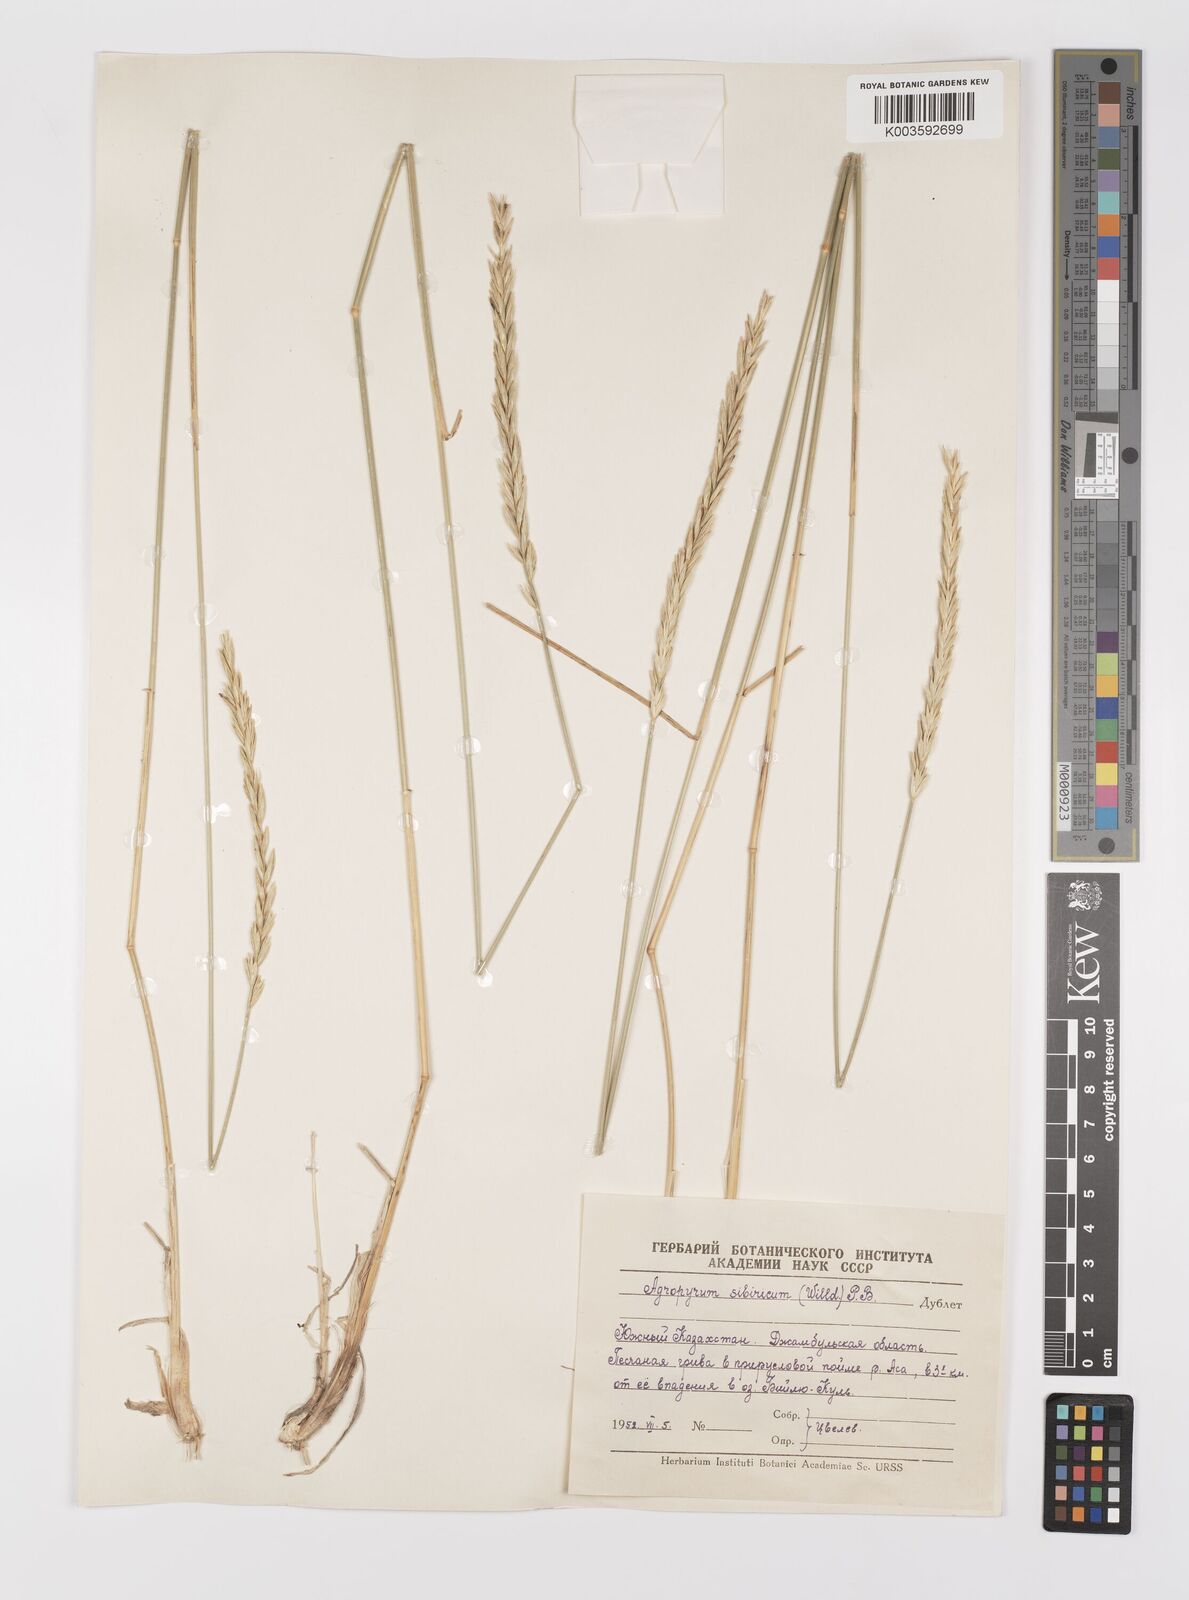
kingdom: Plantae
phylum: Tracheophyta
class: Liliopsida
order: Poales
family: Poaceae
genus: Agropyron
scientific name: Agropyron fragile
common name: Siberian wheatgrass
